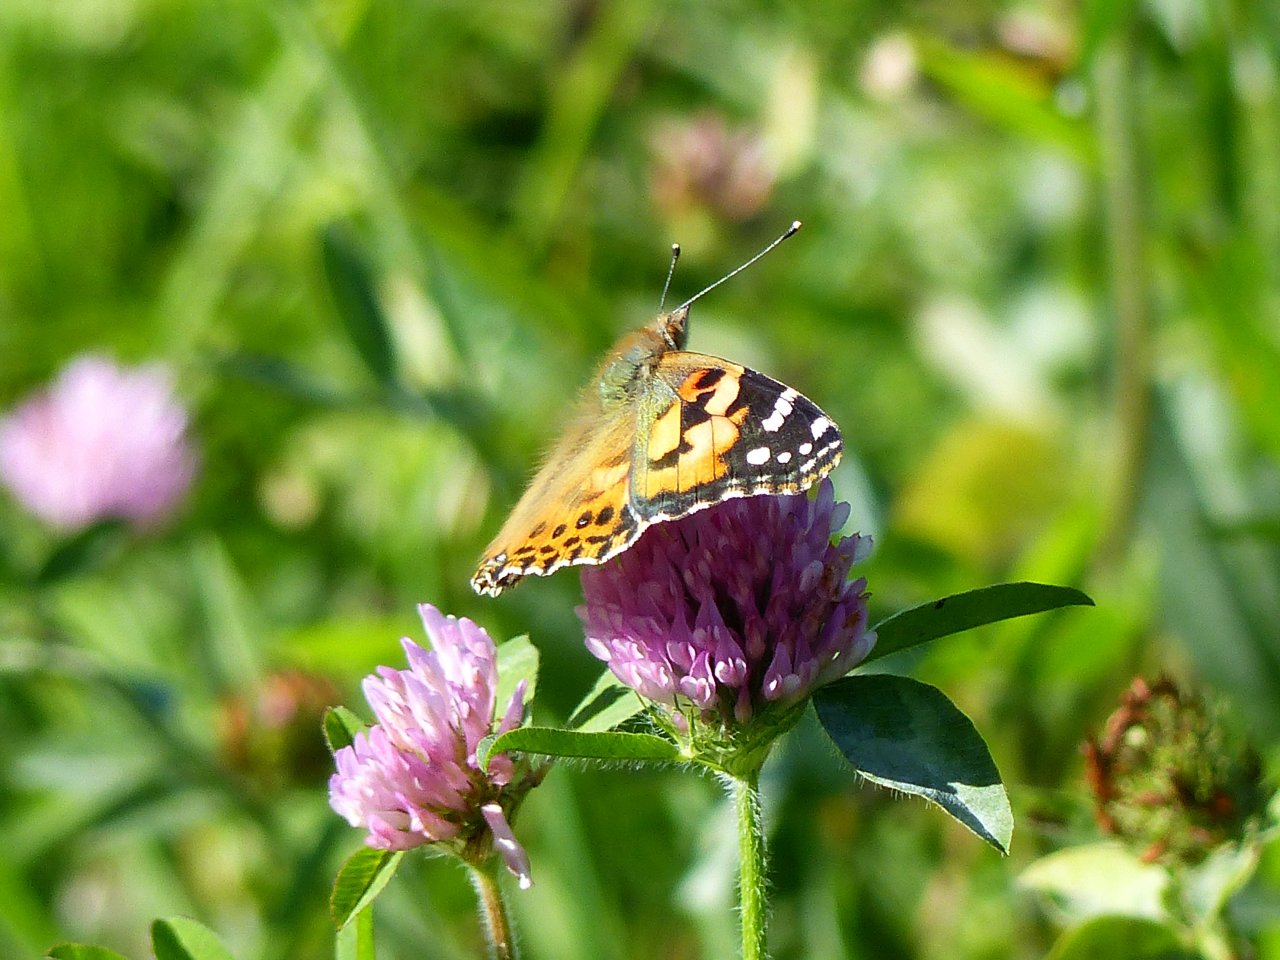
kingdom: Animalia
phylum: Arthropoda
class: Insecta
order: Lepidoptera
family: Nymphalidae
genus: Vanessa
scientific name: Vanessa cardui
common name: Painted Lady
